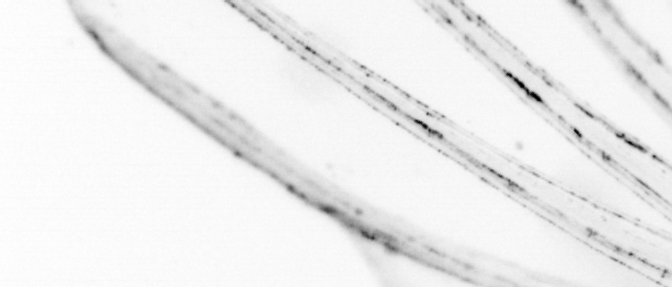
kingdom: Animalia
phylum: Chordata
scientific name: Chordata
